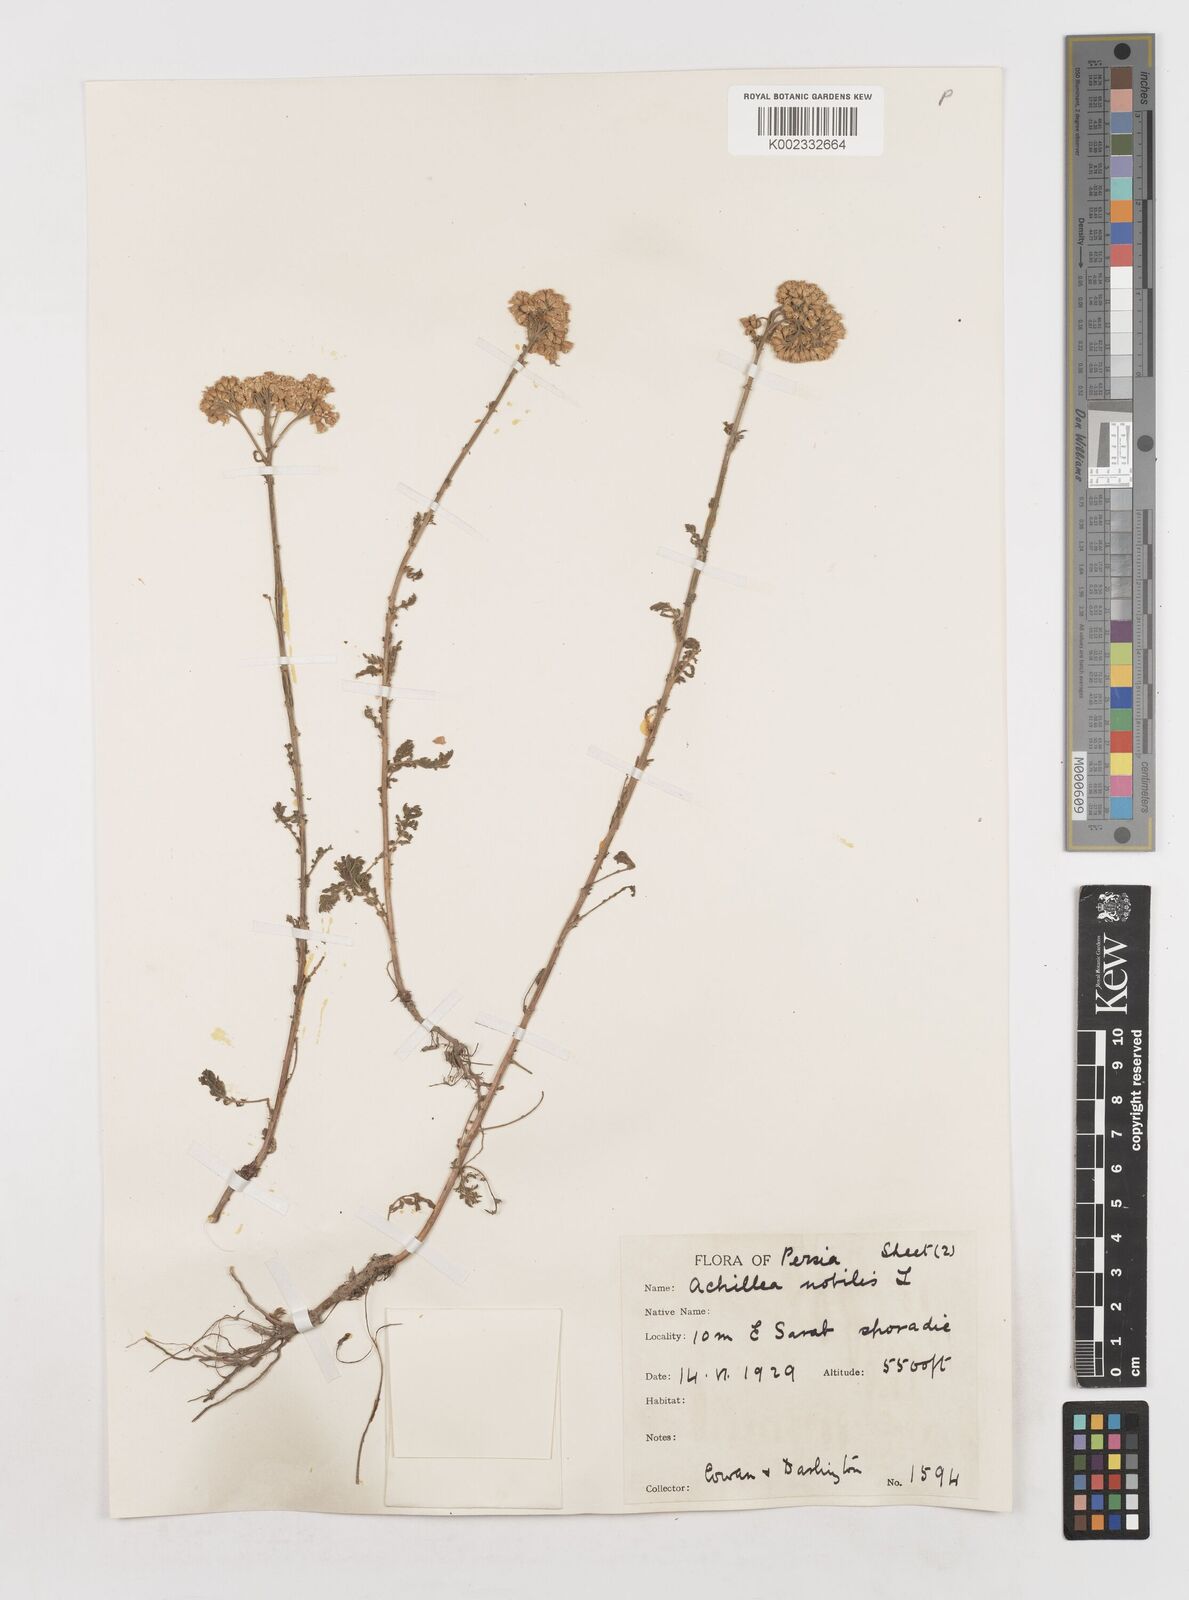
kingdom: Plantae
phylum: Tracheophyta
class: Magnoliopsida
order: Asterales
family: Asteraceae
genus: Achillea
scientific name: Achillea nobilis
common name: Noble yarrow
